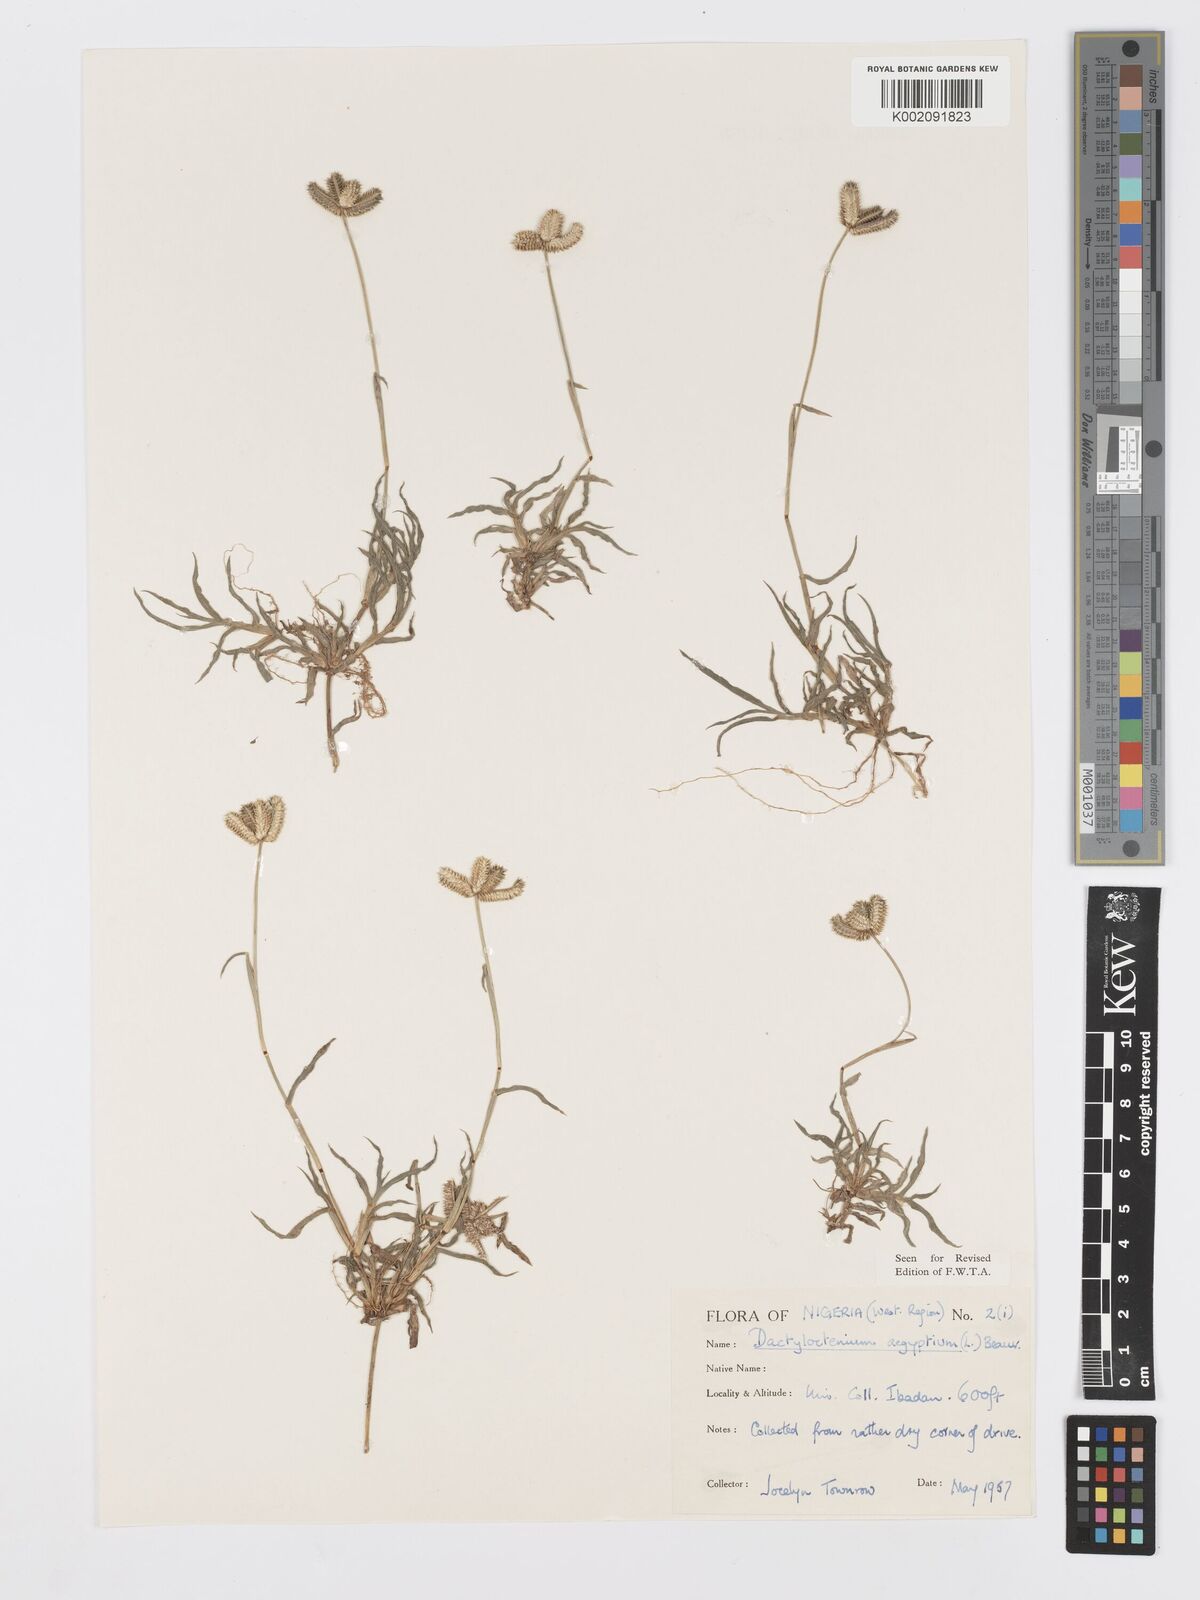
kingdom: Plantae
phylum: Tracheophyta
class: Liliopsida
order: Poales
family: Poaceae
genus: Dactyloctenium
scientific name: Dactyloctenium aegyptium
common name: Egyptian grass
